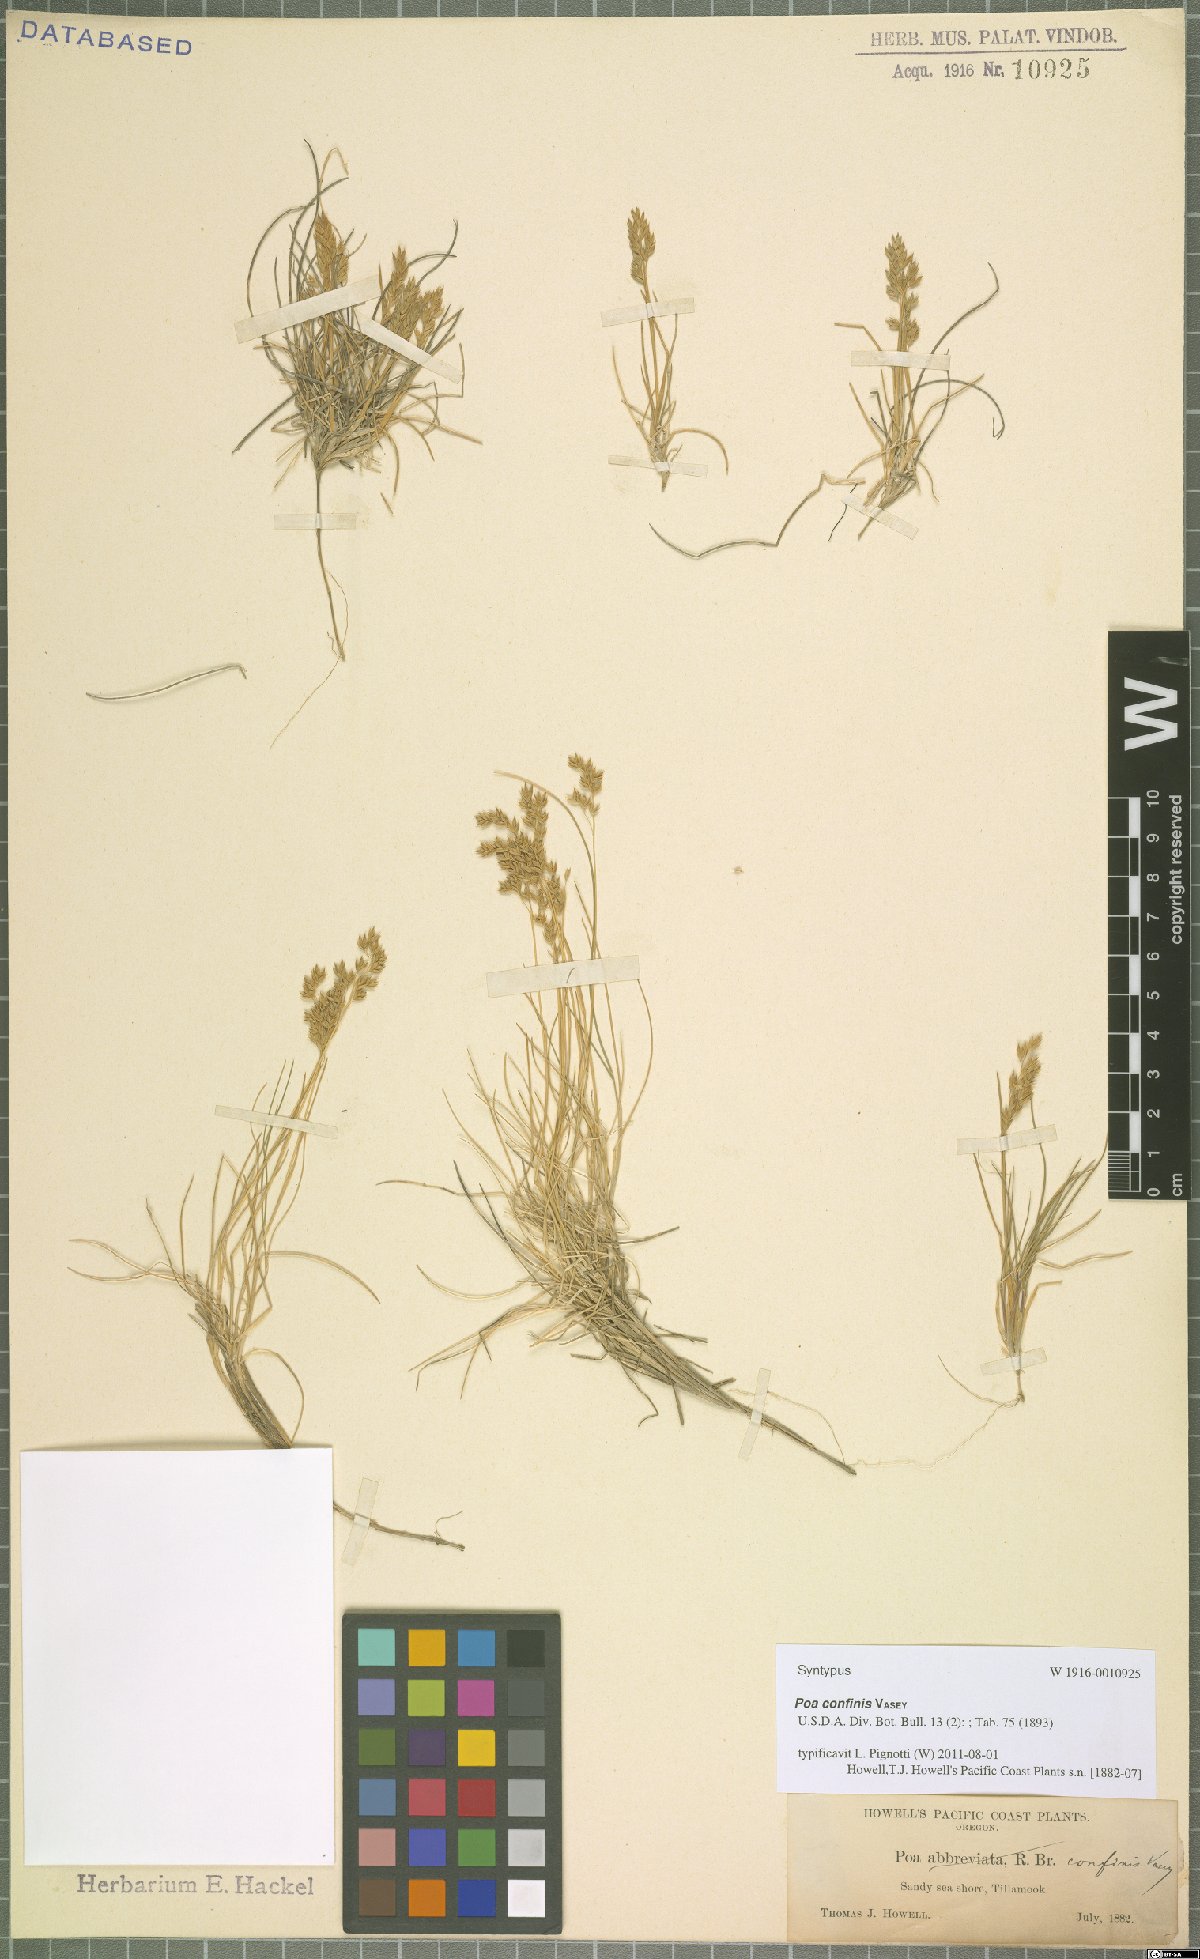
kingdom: Plantae
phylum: Tracheophyta
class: Liliopsida
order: Poales
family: Poaceae
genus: Poa
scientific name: Poa confinis
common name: Beach bluegrass
